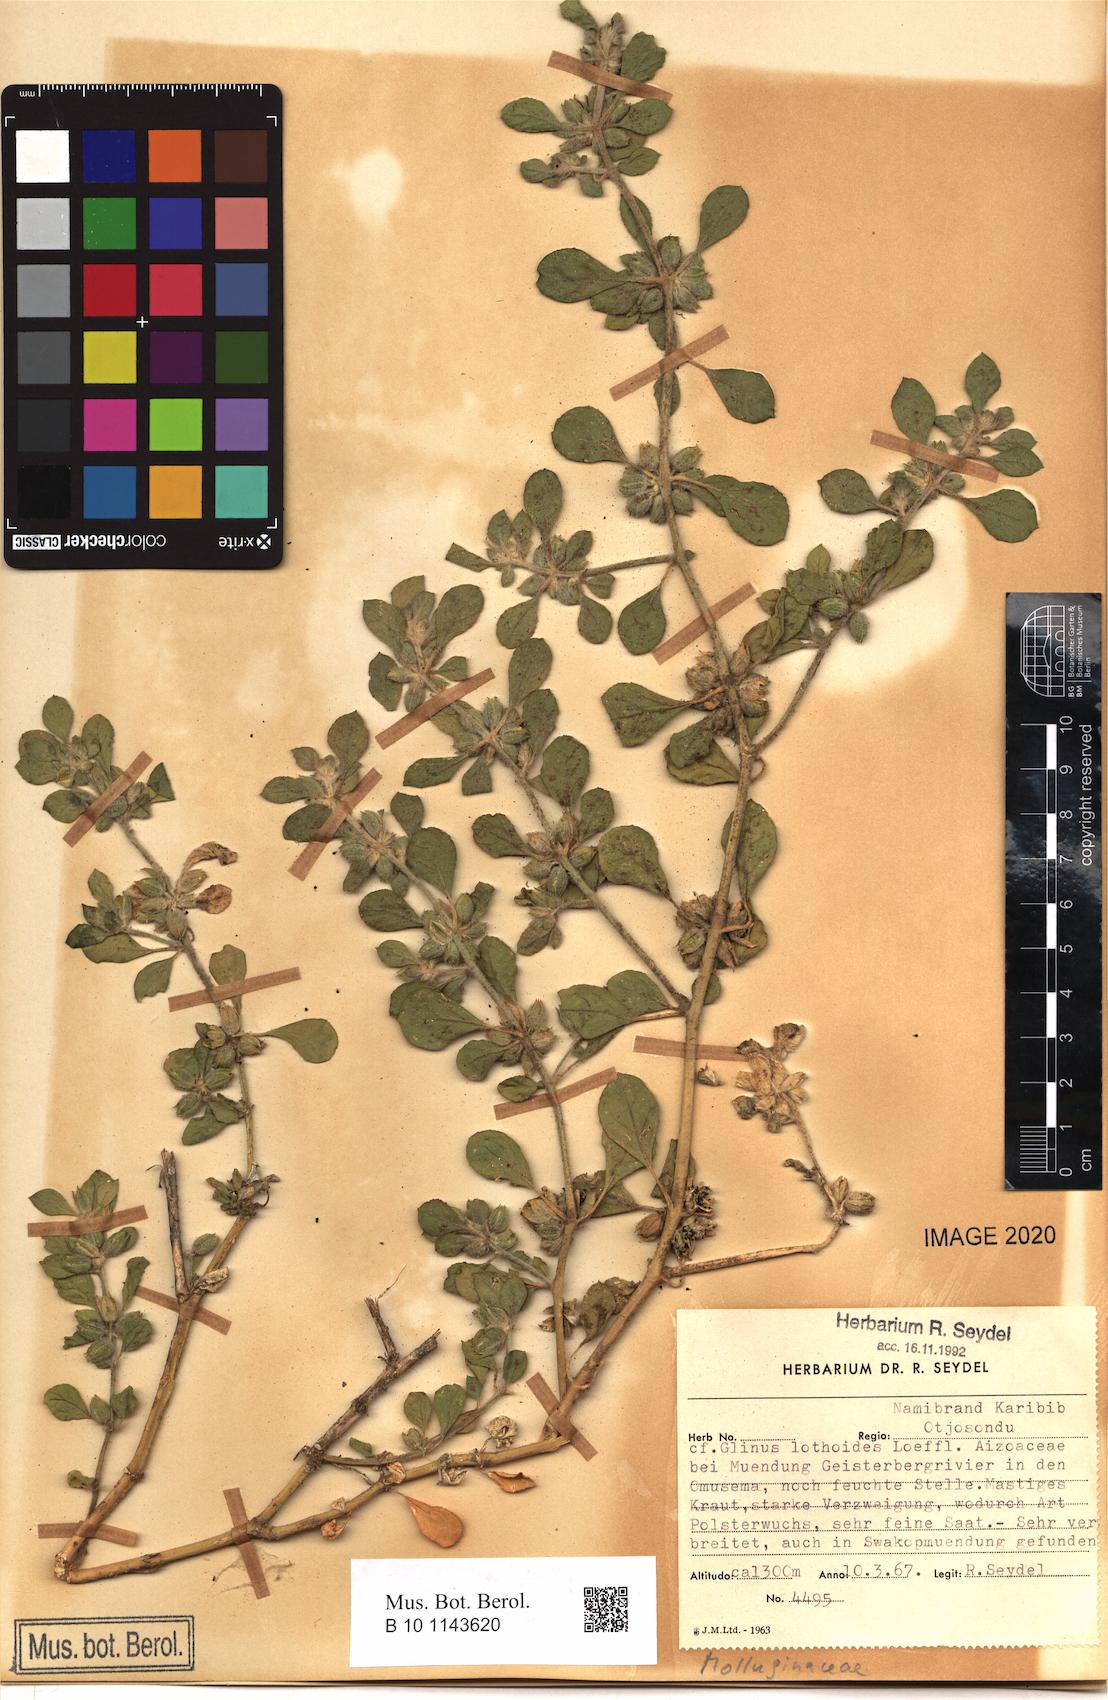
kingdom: Plantae
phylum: Tracheophyta
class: Magnoliopsida
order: Caryophyllales
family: Molluginaceae
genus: Glinus
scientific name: Glinus lotoides
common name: Lotus sweetjuice
